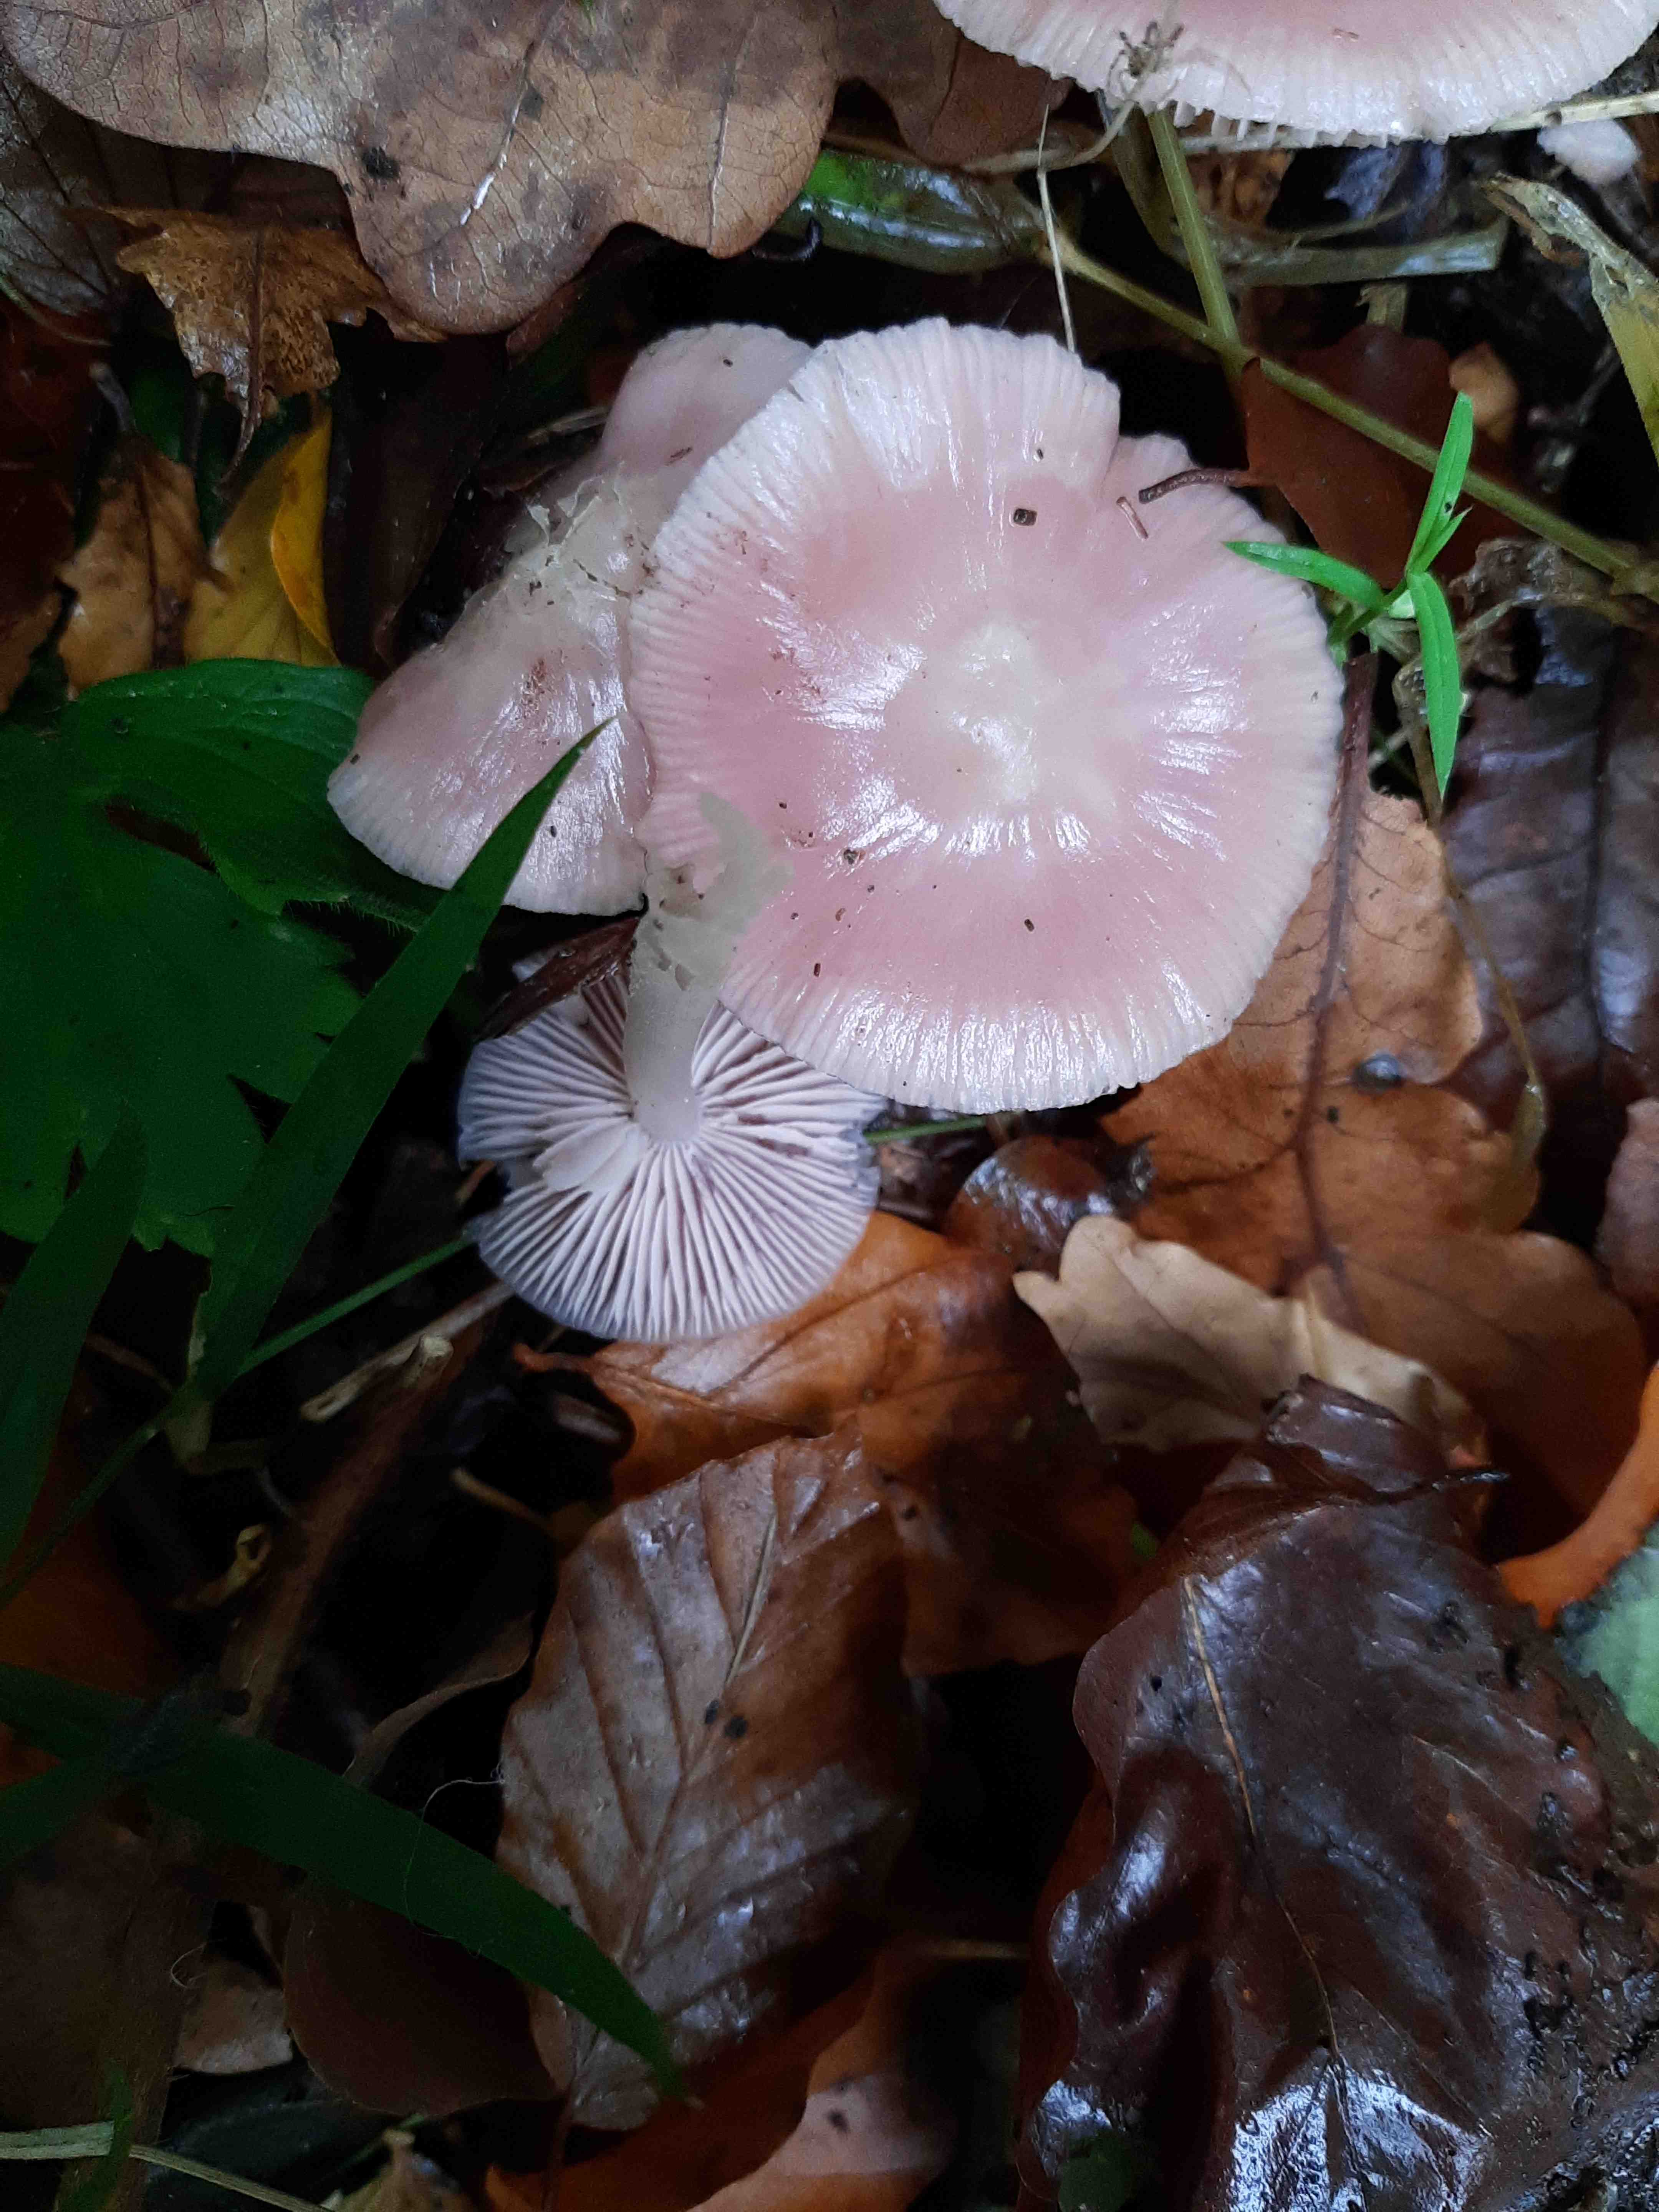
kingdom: Fungi
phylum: Basidiomycota
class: Agaricomycetes
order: Agaricales
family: Mycenaceae
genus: Mycena
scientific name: Mycena rosea
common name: rosa huesvamp
